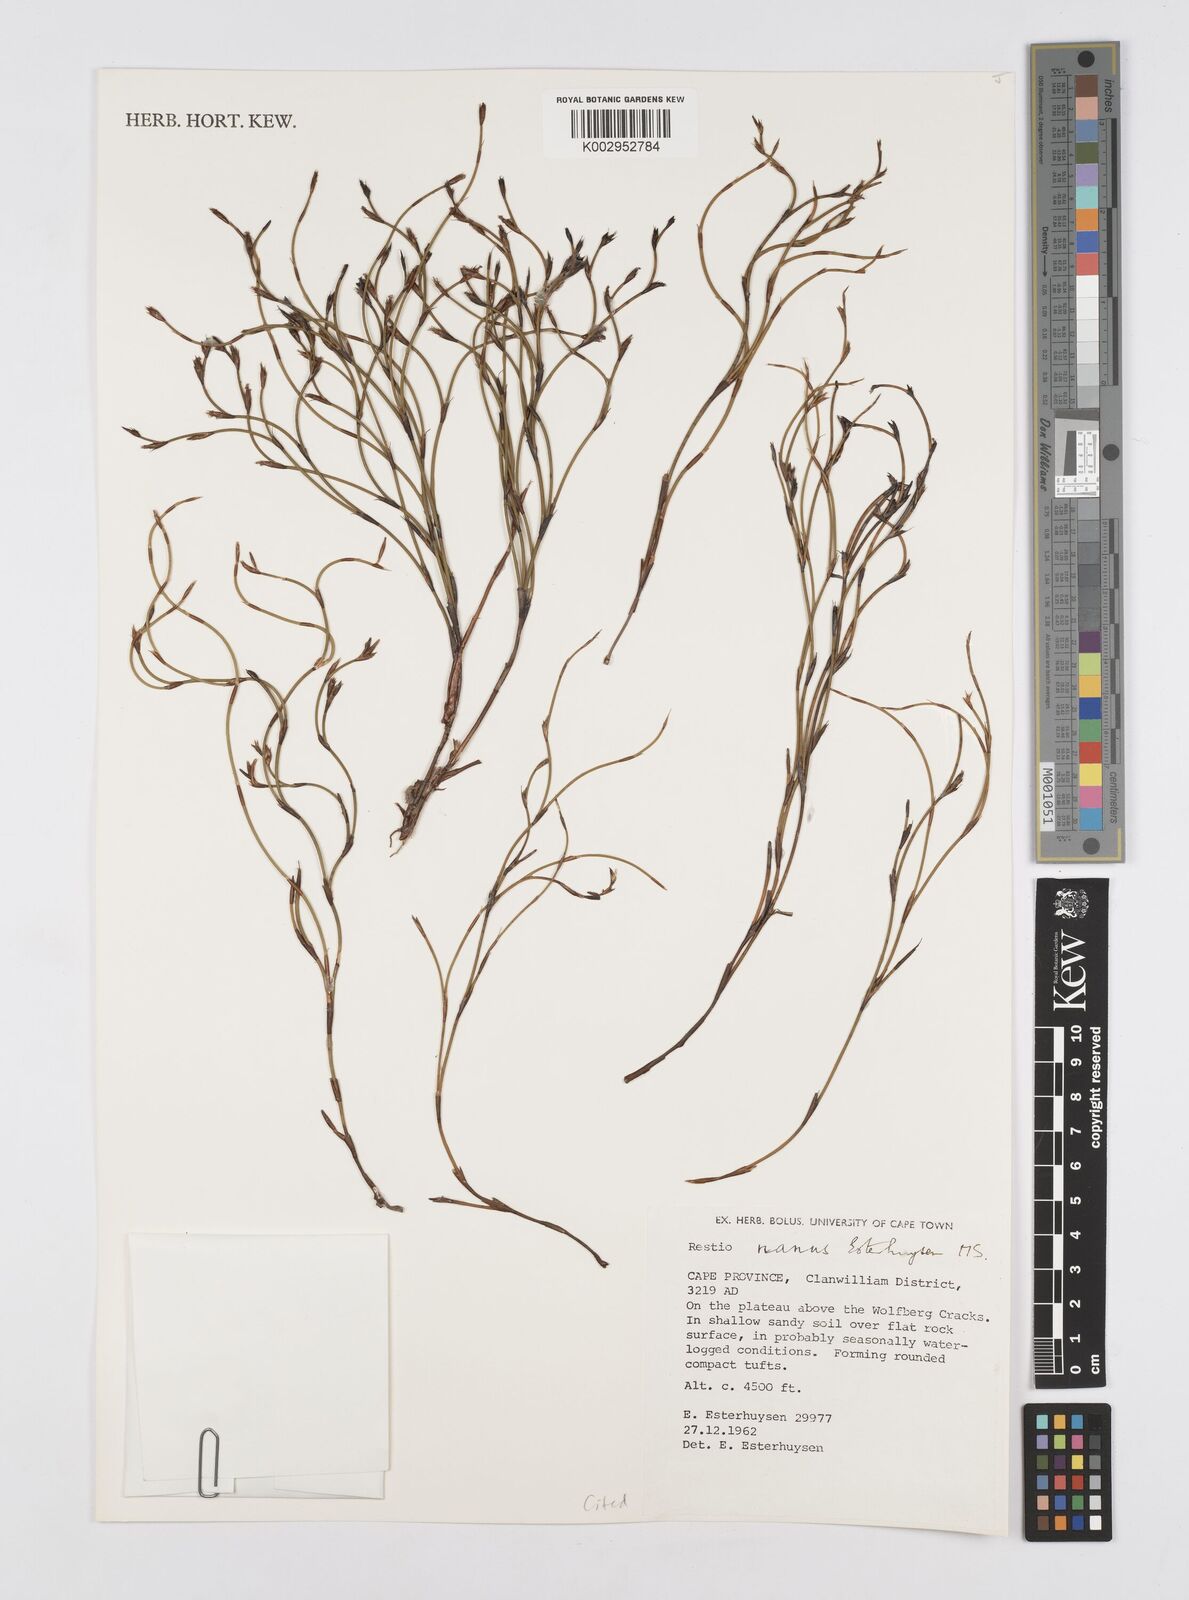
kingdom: Plantae
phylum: Tracheophyta
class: Liliopsida
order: Poales
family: Restionaceae
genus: Restio
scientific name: Restio nanus
